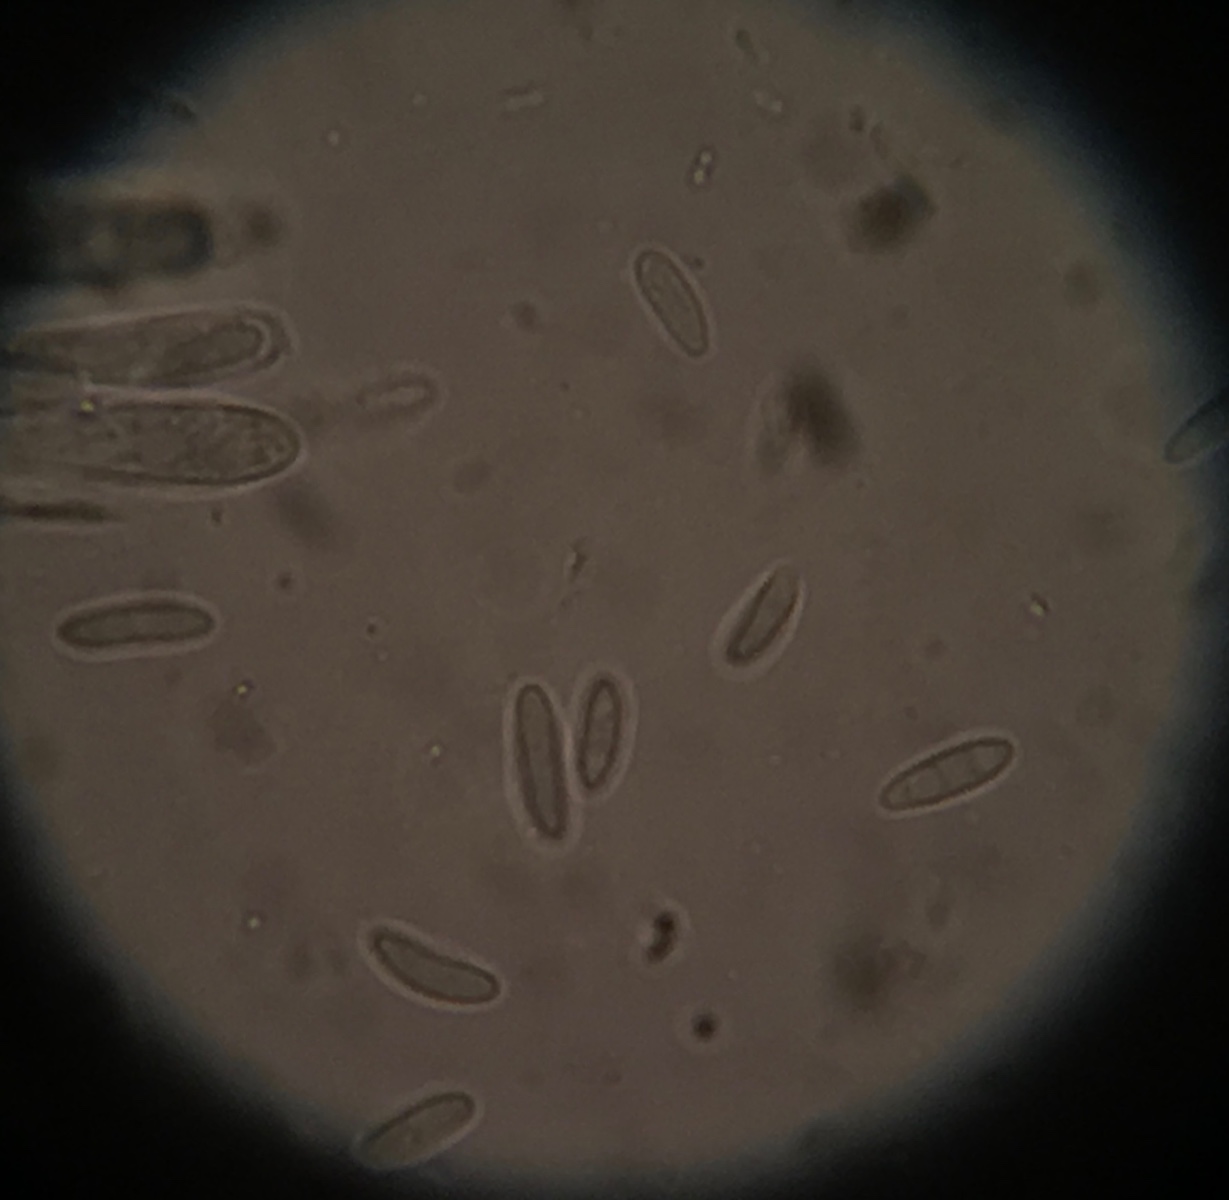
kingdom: Fungi
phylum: Ascomycota
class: Leotiomycetes
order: Helotiales
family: Pezizellaceae
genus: Calycina
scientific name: Calycina alniella
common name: ellekogle-stilkskive
